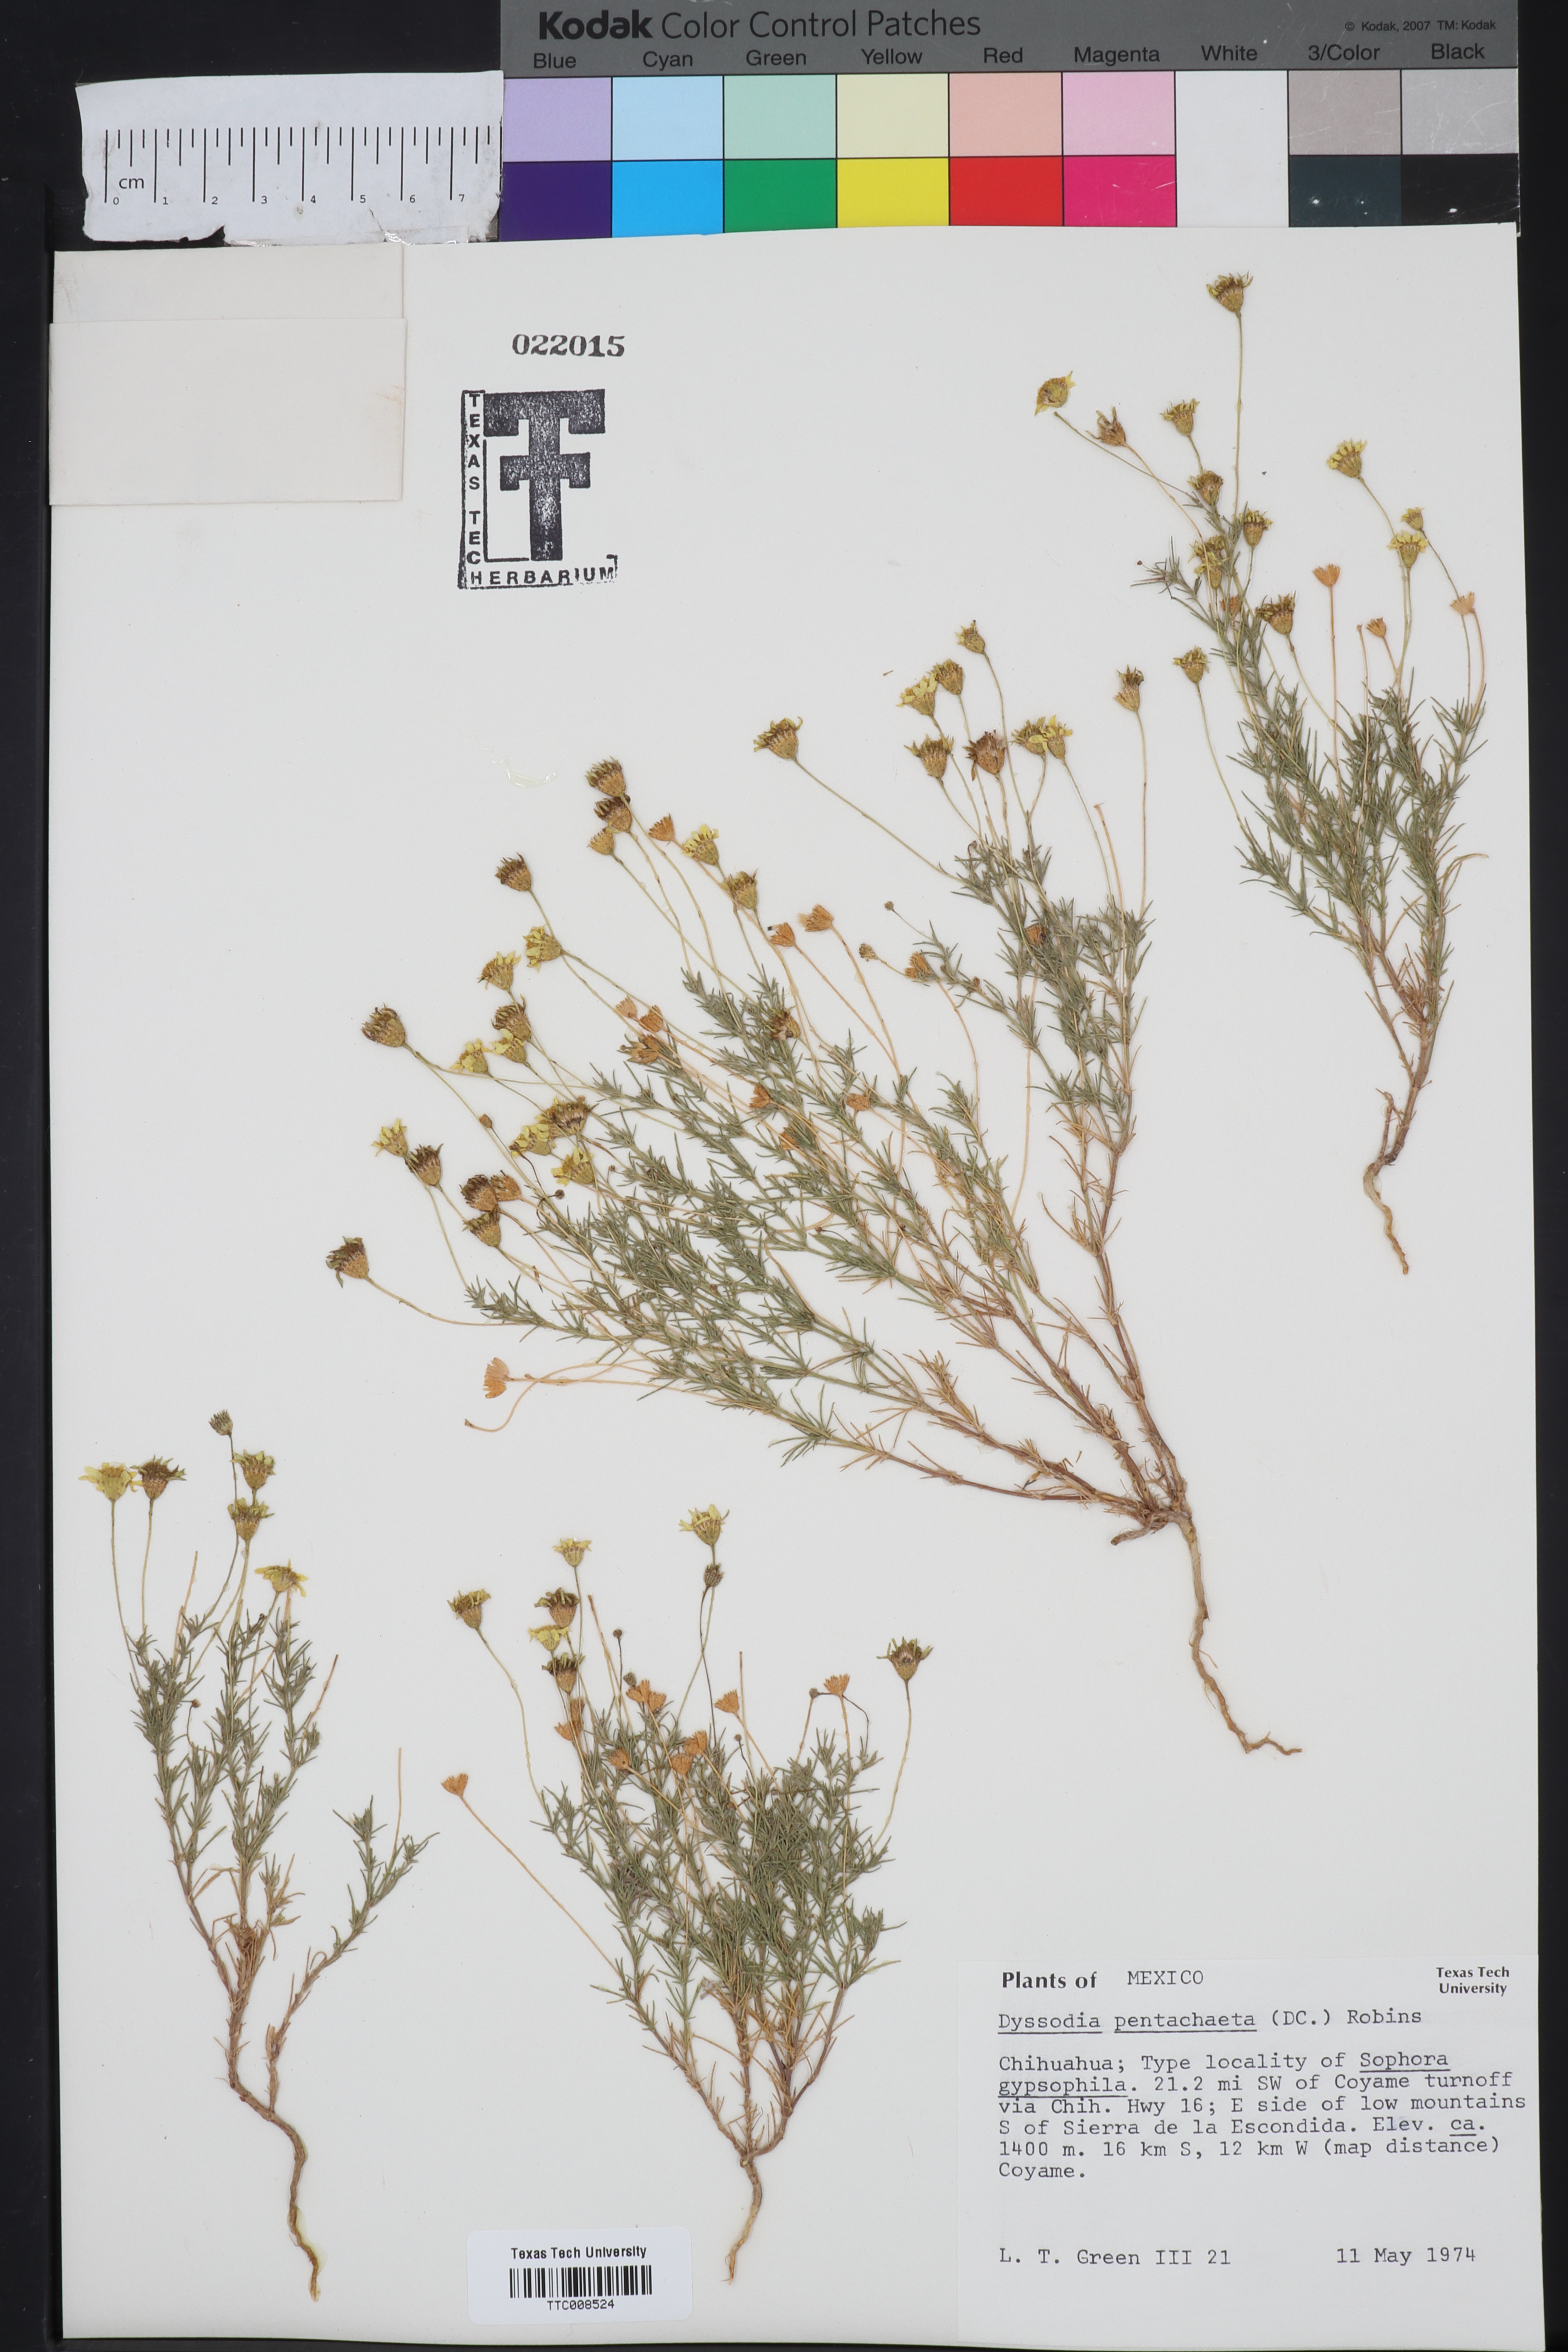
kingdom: Plantae
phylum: Tracheophyta
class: Magnoliopsida
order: Asterales
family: Asteraceae
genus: Thymophylla
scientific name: Thymophylla pentachaeta
